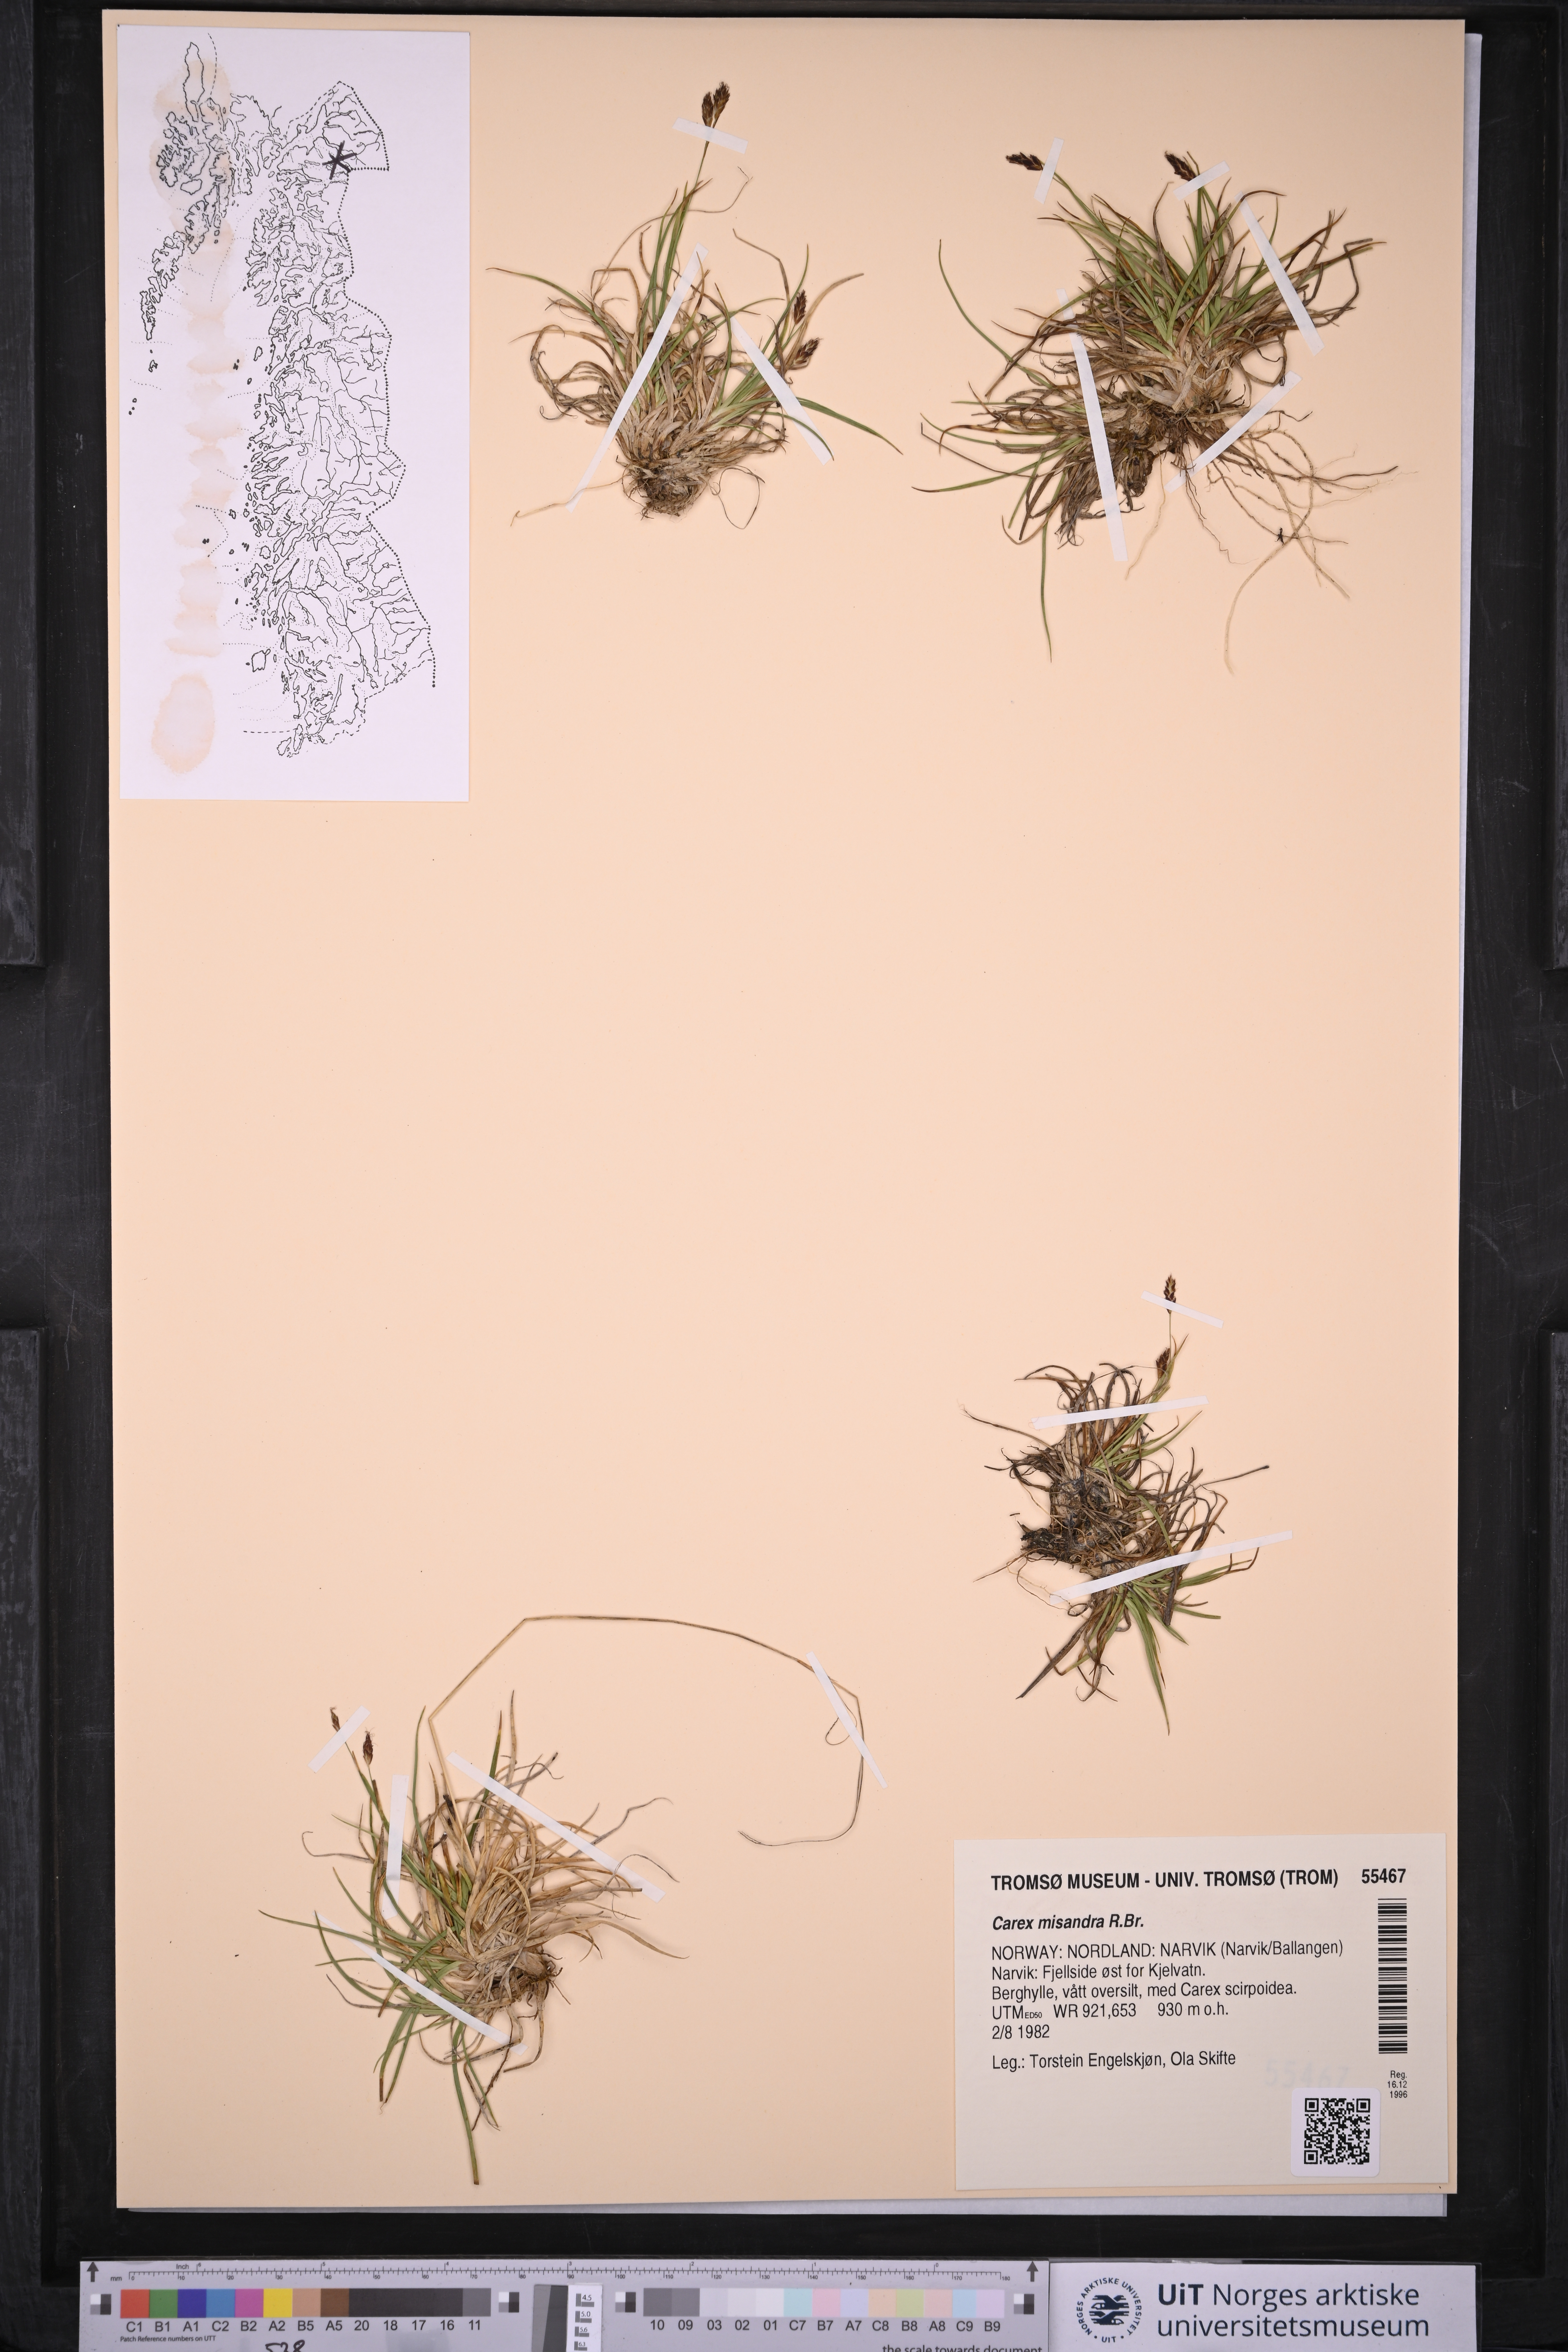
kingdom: Plantae
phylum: Tracheophyta
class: Liliopsida
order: Poales
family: Cyperaceae
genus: Carex
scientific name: Carex fuliginosa
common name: Few-flowered sedge
